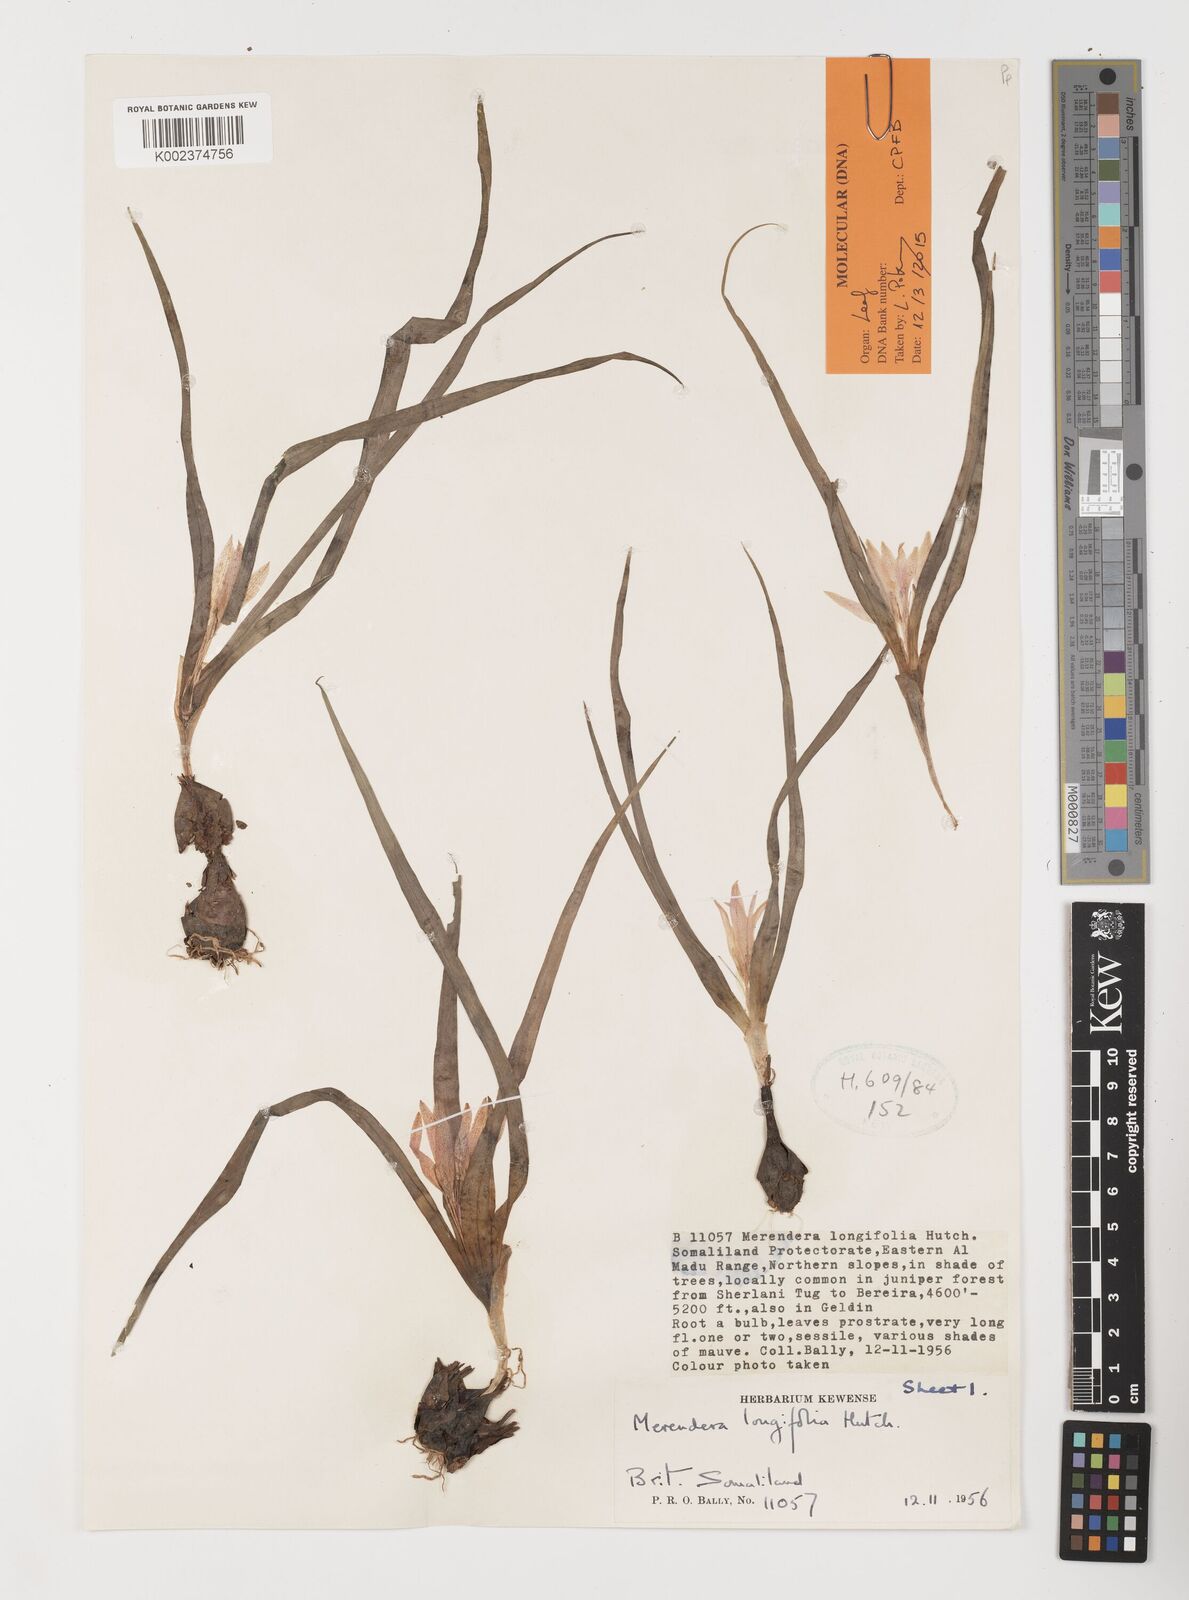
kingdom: Plantae
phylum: Tracheophyta
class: Liliopsida
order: Liliales
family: Colchicaceae
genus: Colchicum
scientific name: Colchicum longifolium
